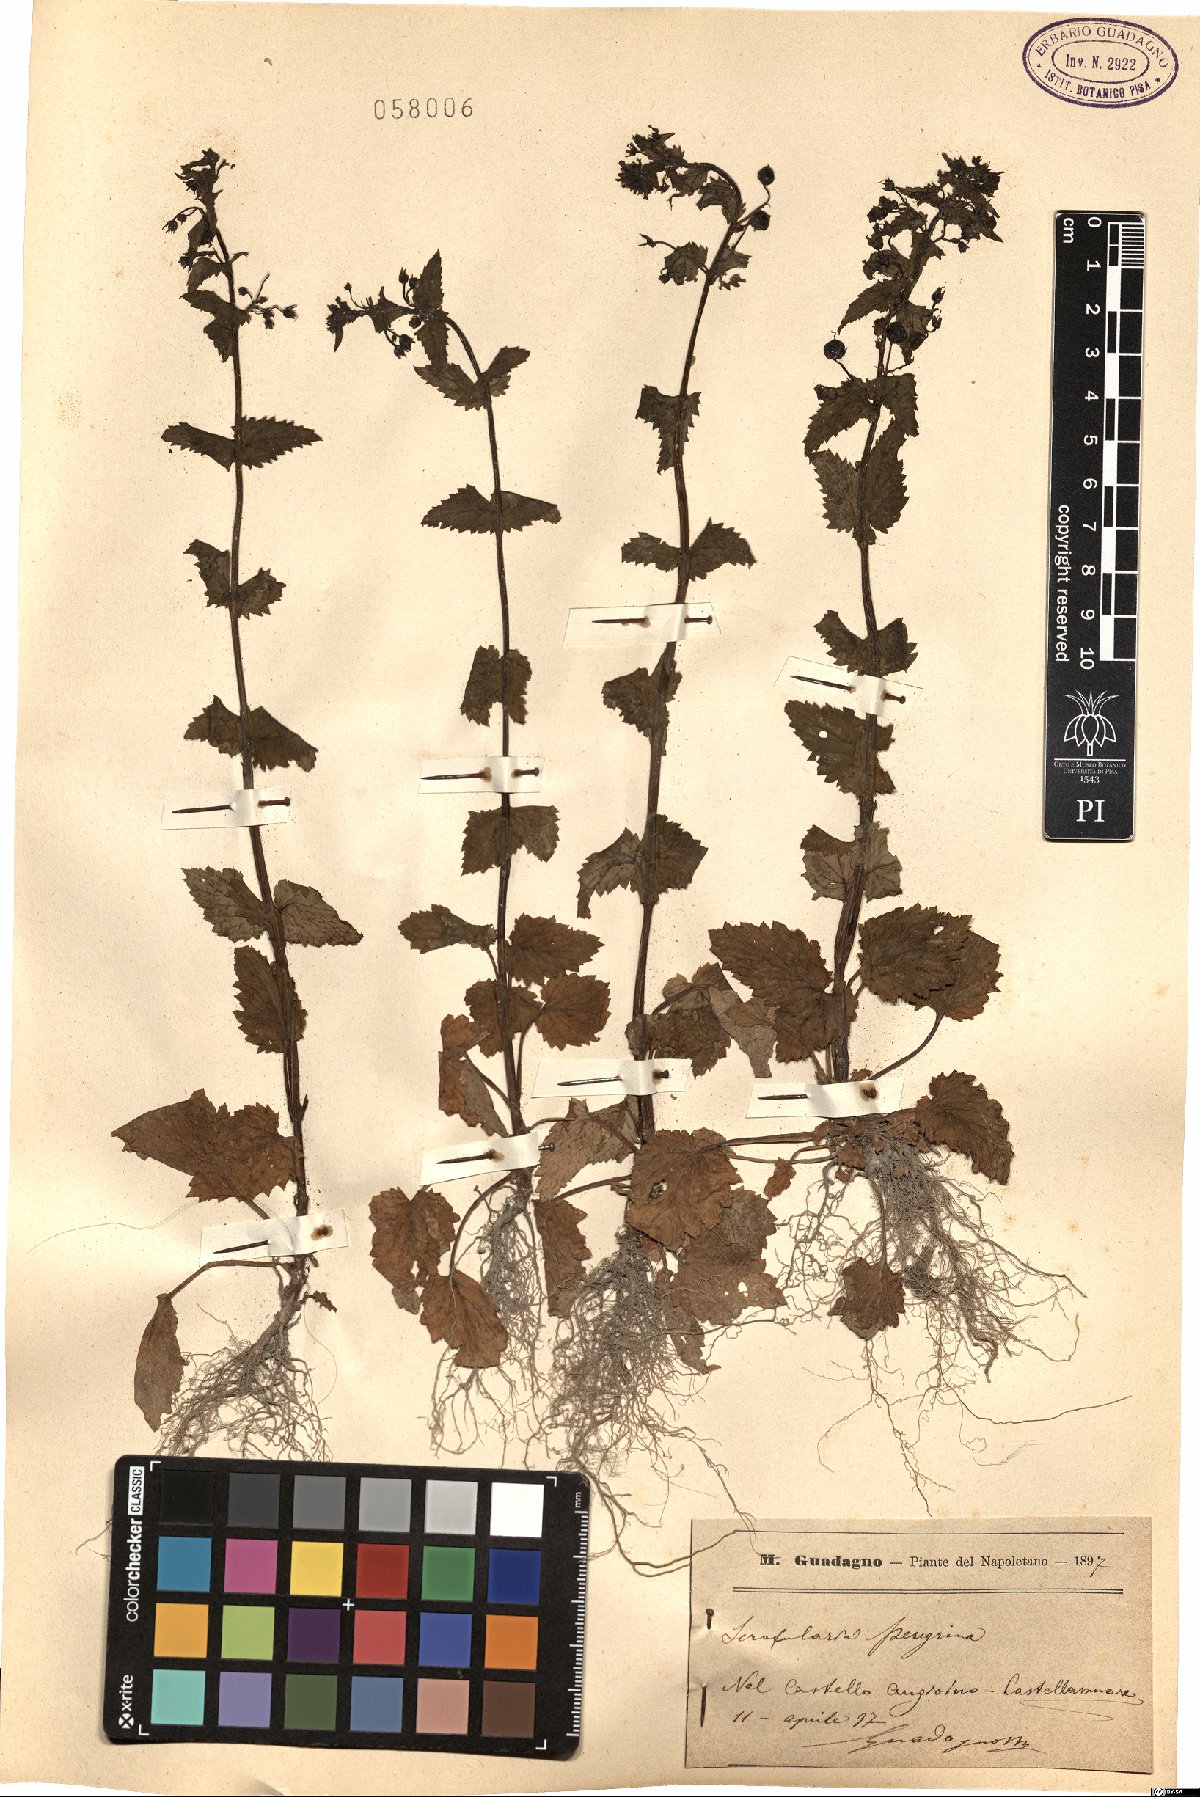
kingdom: Plantae
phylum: Tracheophyta
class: Magnoliopsida
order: Lamiales
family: Scrophulariaceae
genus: Scrophularia
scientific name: Scrophularia peregrina
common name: Mediterranean figwort
